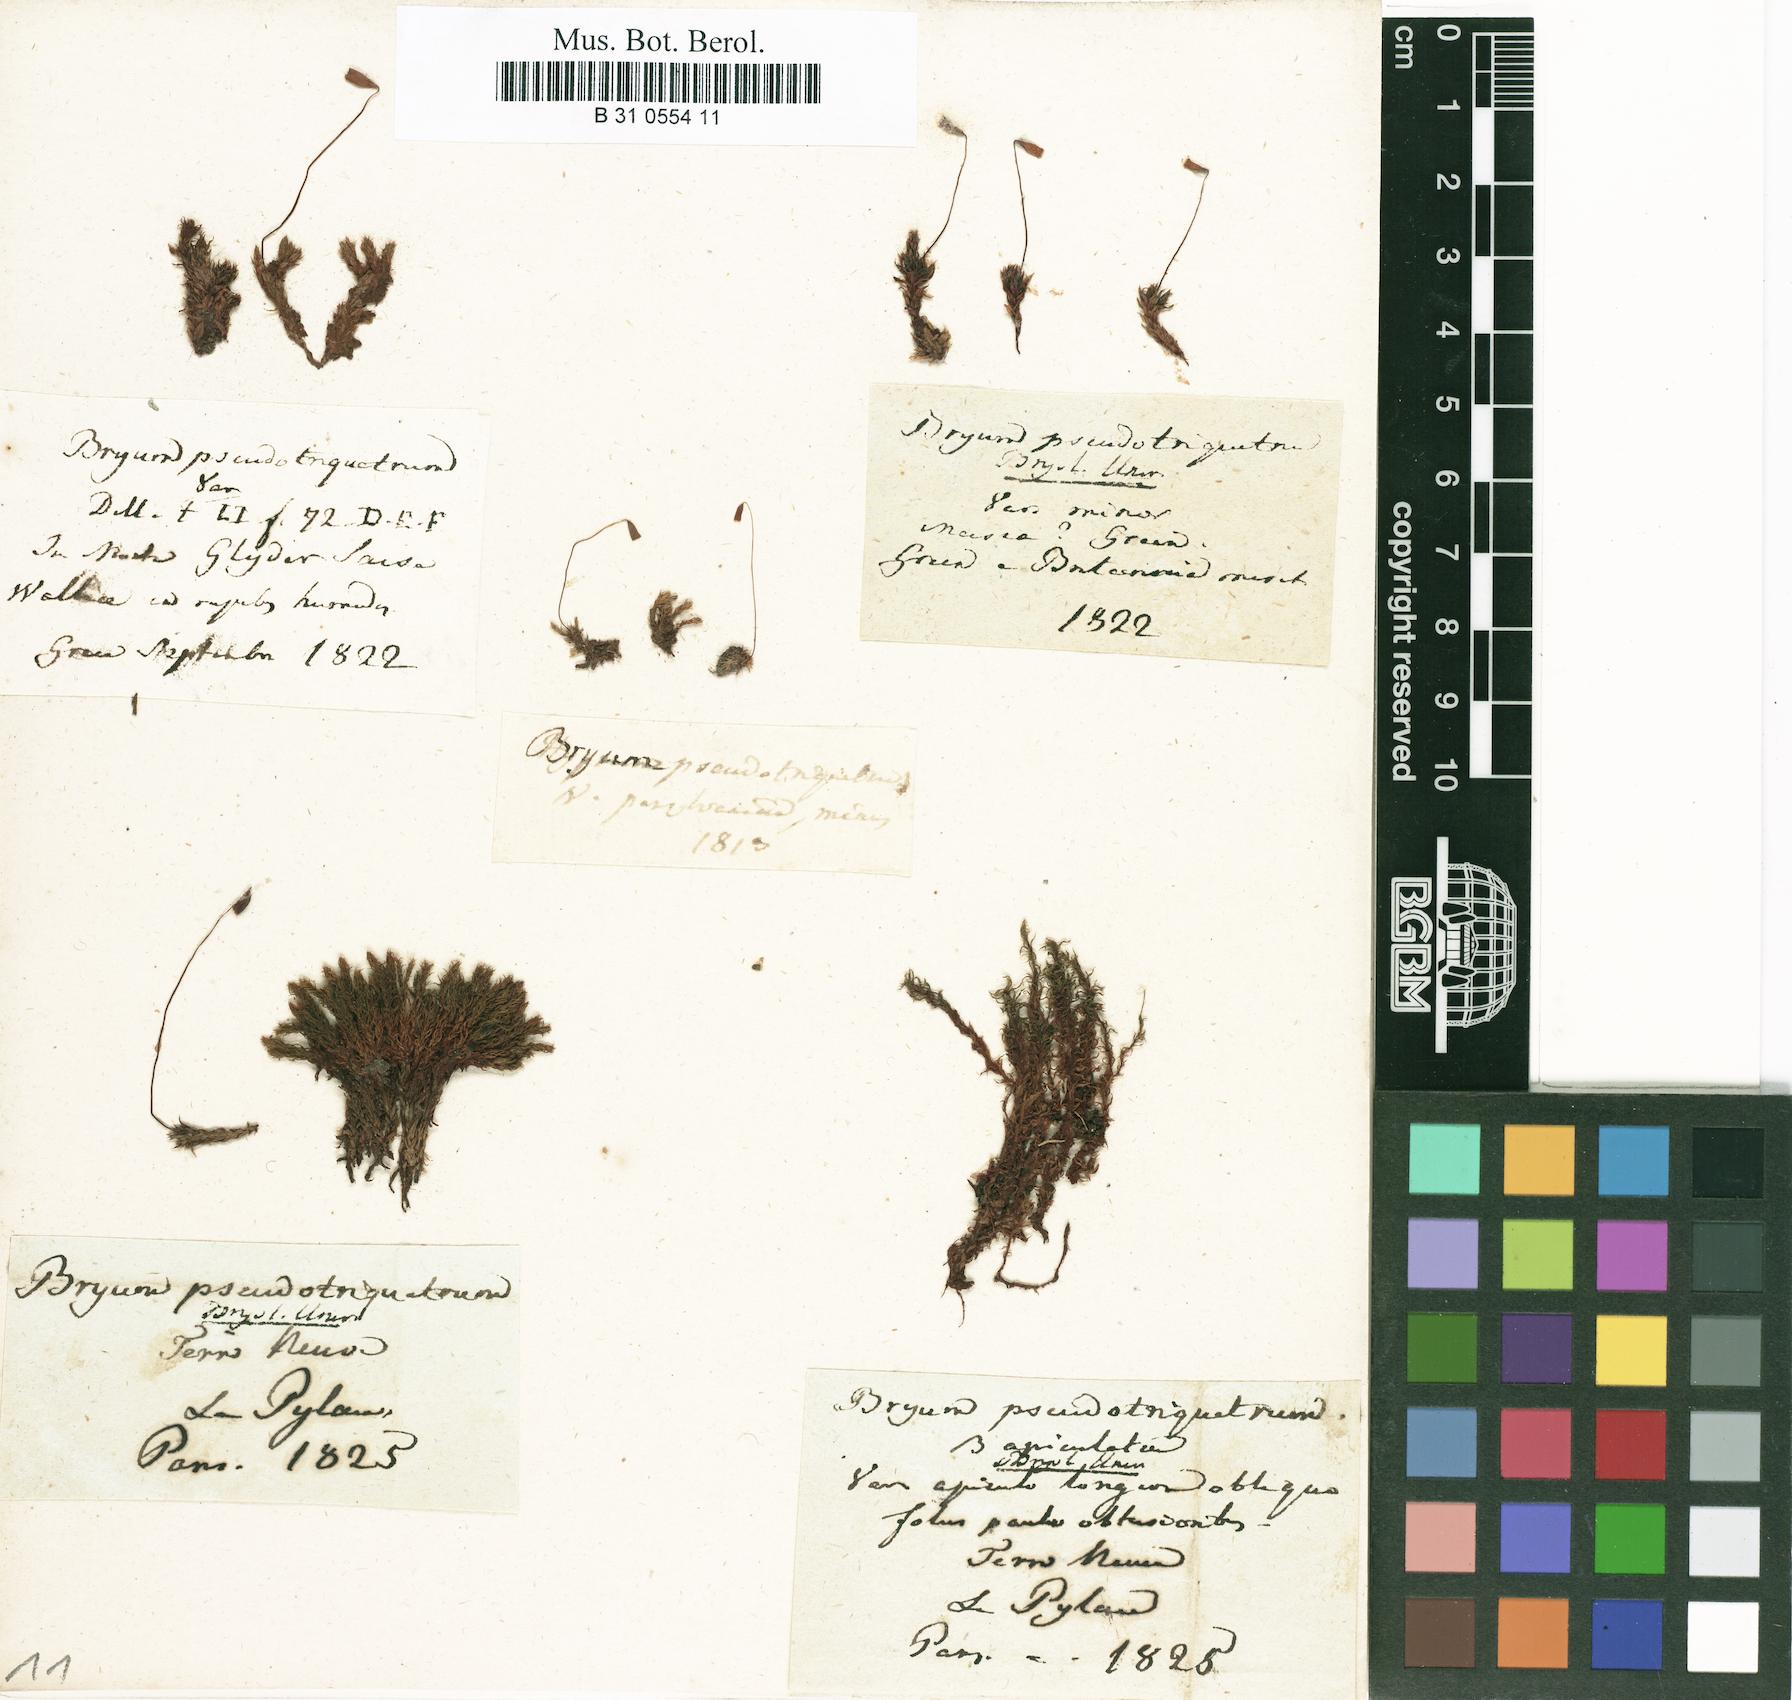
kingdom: Plantae
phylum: Bryophyta
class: Bryopsida
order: Bryales
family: Bryaceae
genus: Ptychostomum
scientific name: Ptychostomum pseudotriquetrum
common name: Long-leaved thread moss
